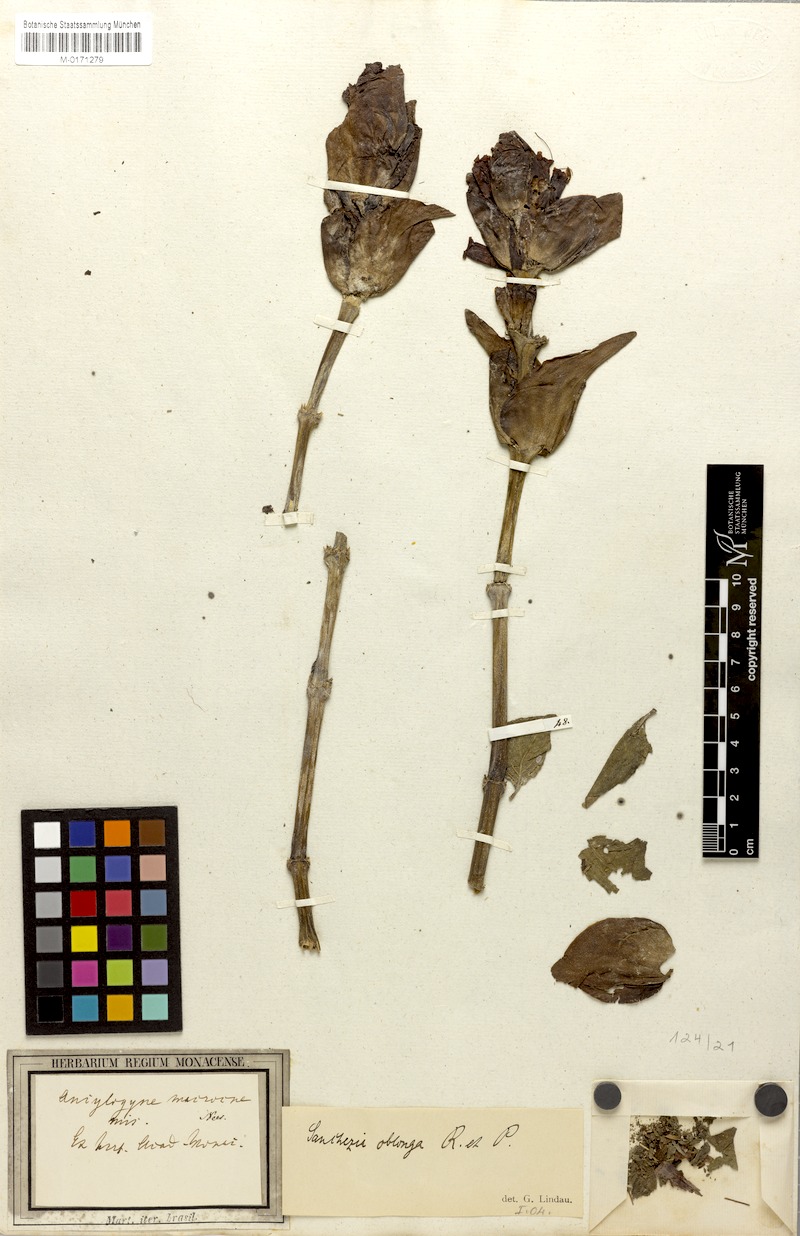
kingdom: Plantae
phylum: Tracheophyta
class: Magnoliopsida
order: Lamiales
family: Acanthaceae
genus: Sanchezia
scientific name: Sanchezia macrocnemis
